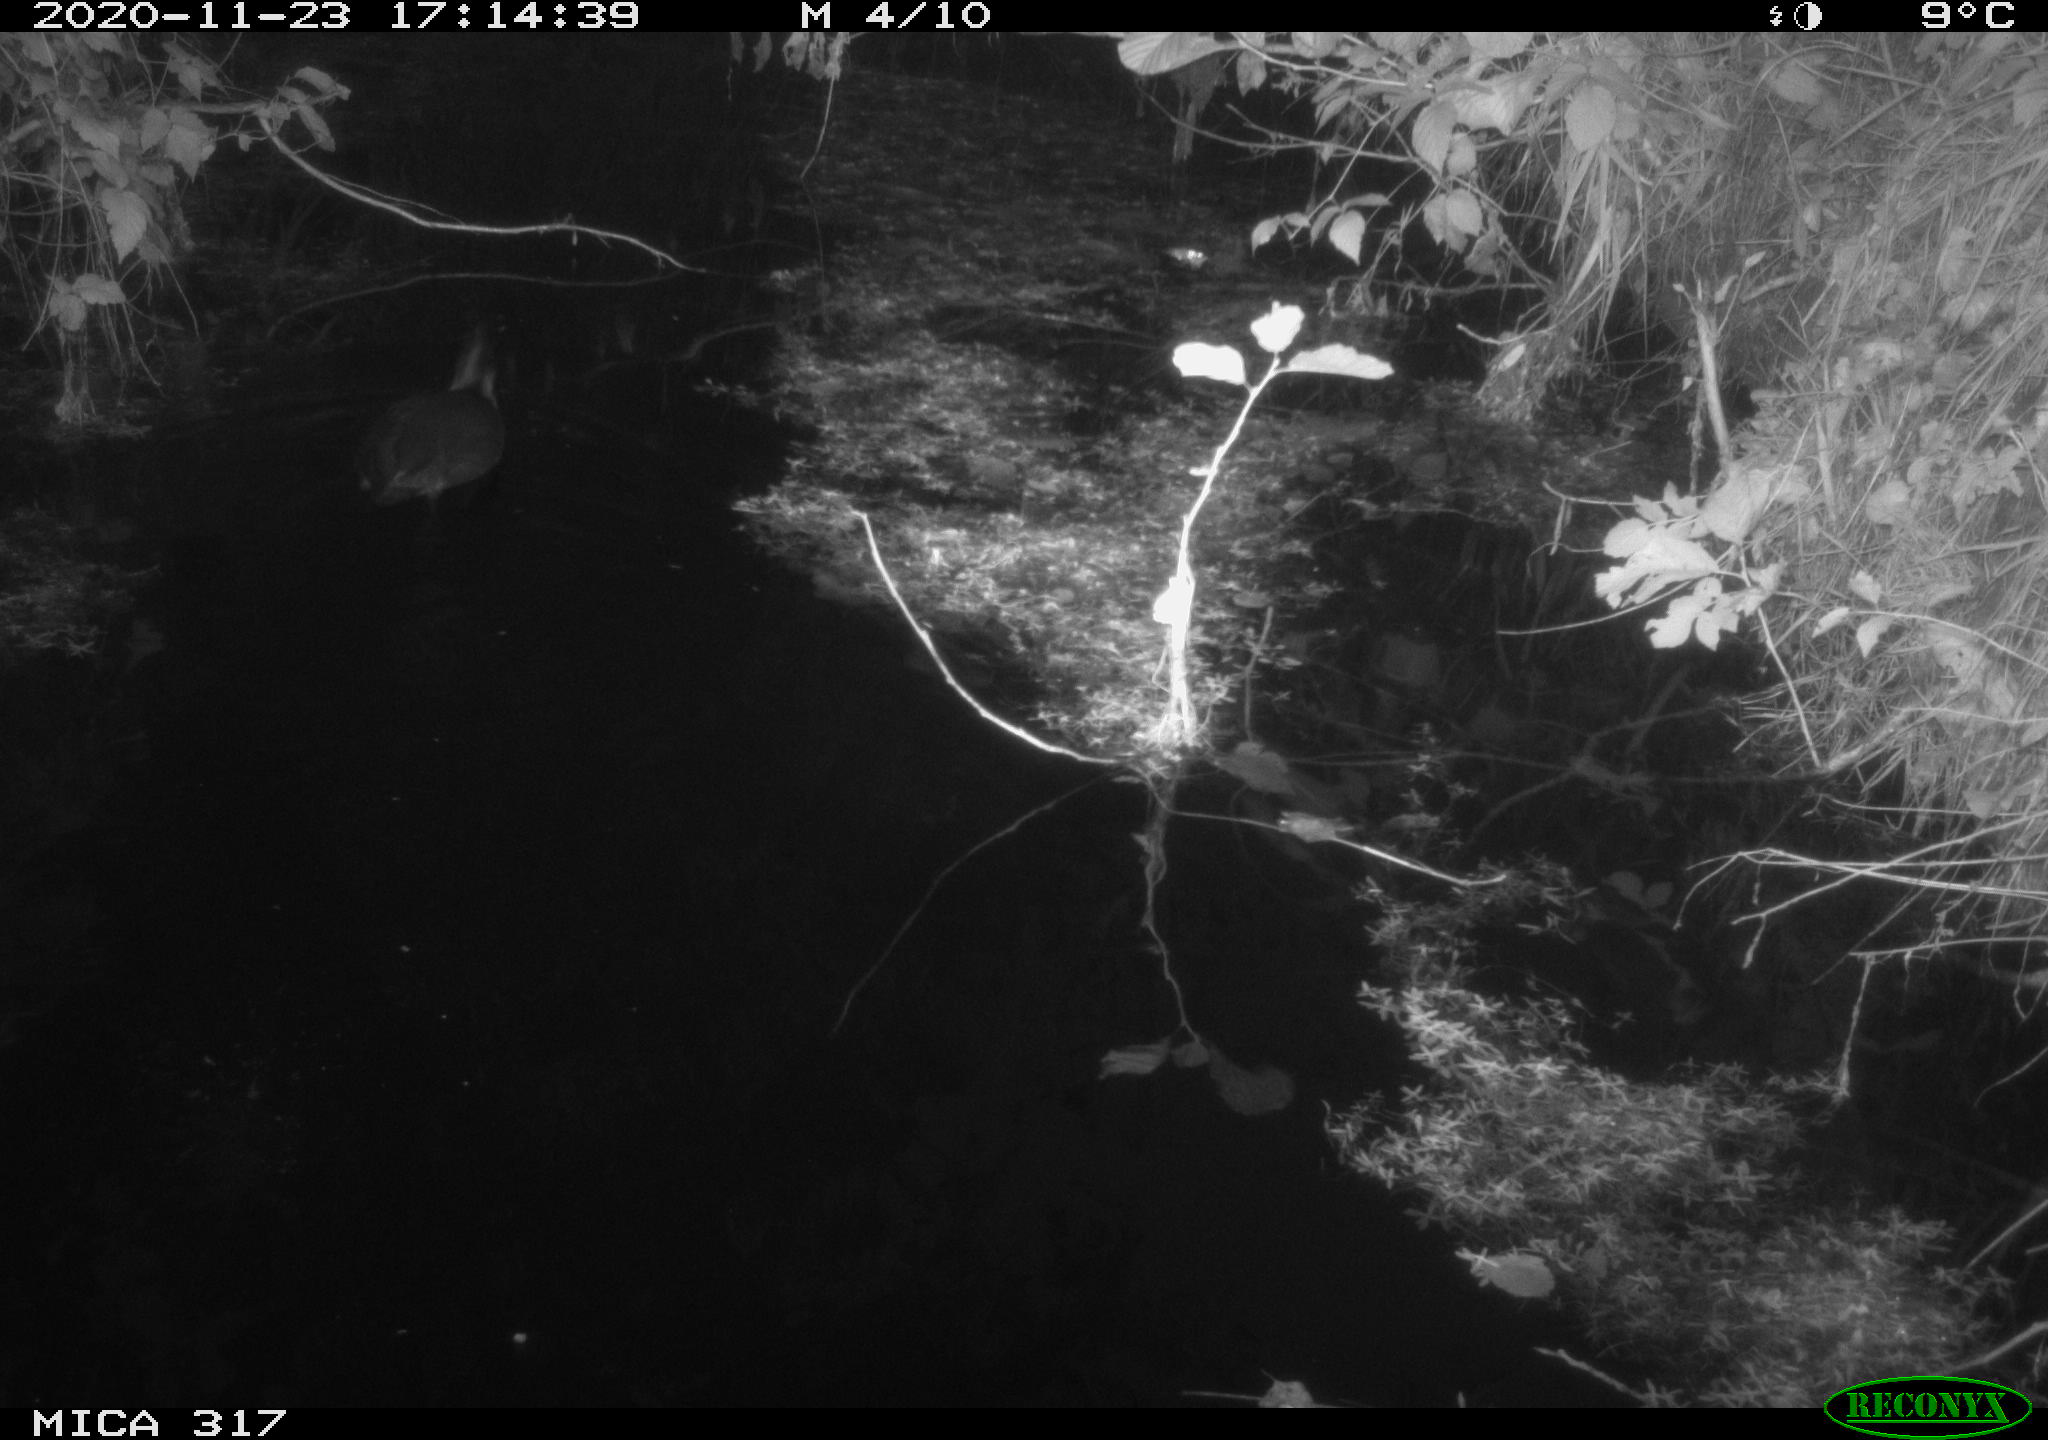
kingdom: Animalia
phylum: Chordata
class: Aves
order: Gruiformes
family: Rallidae
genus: Fulica
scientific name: Fulica atra
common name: Eurasian coot
